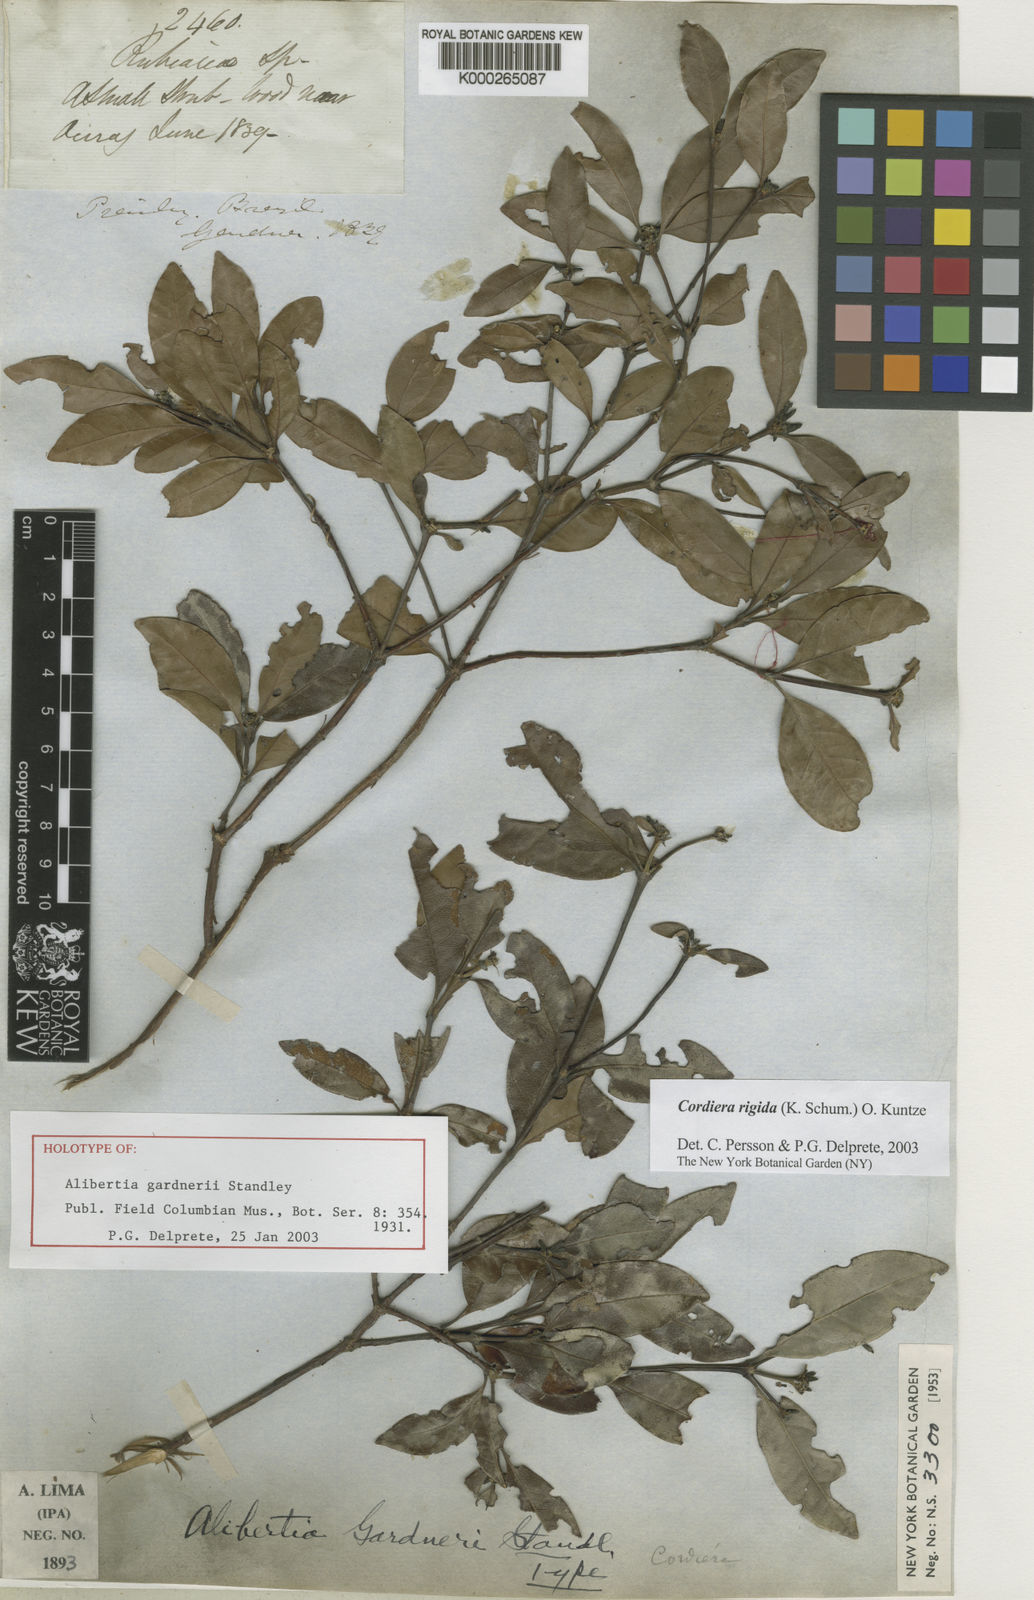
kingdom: Plantae
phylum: Tracheophyta
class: Magnoliopsida
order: Gentianales
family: Rubiaceae
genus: Cordiera
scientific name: Cordiera rigida
